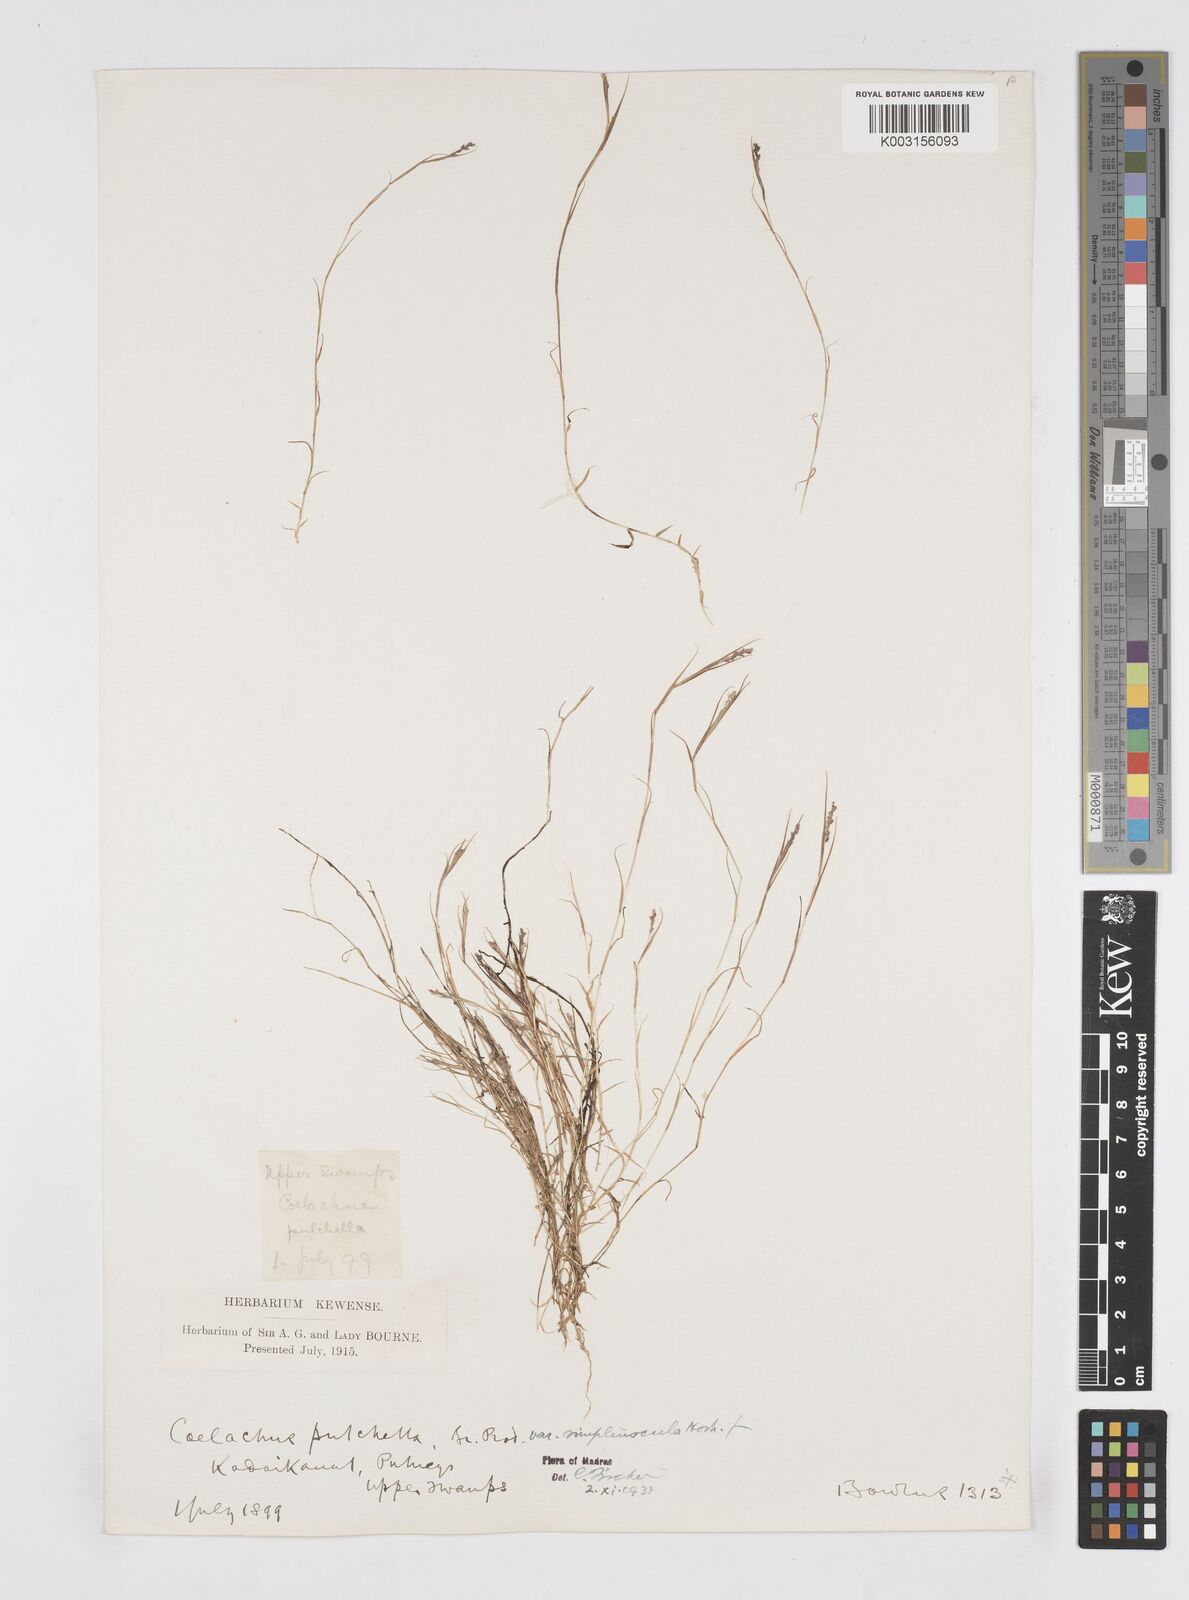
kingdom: Plantae
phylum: Tracheophyta
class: Liliopsida
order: Poales
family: Poaceae
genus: Coelachne
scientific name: Coelachne simpliciuscula
